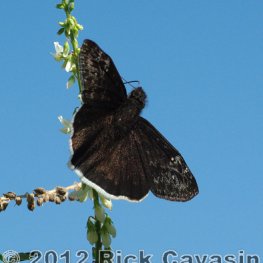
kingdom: Animalia
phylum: Arthropoda
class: Insecta
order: Lepidoptera
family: Hesperiidae
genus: Erynnis
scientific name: Erynnis funeralis
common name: Funereal Duskywing
